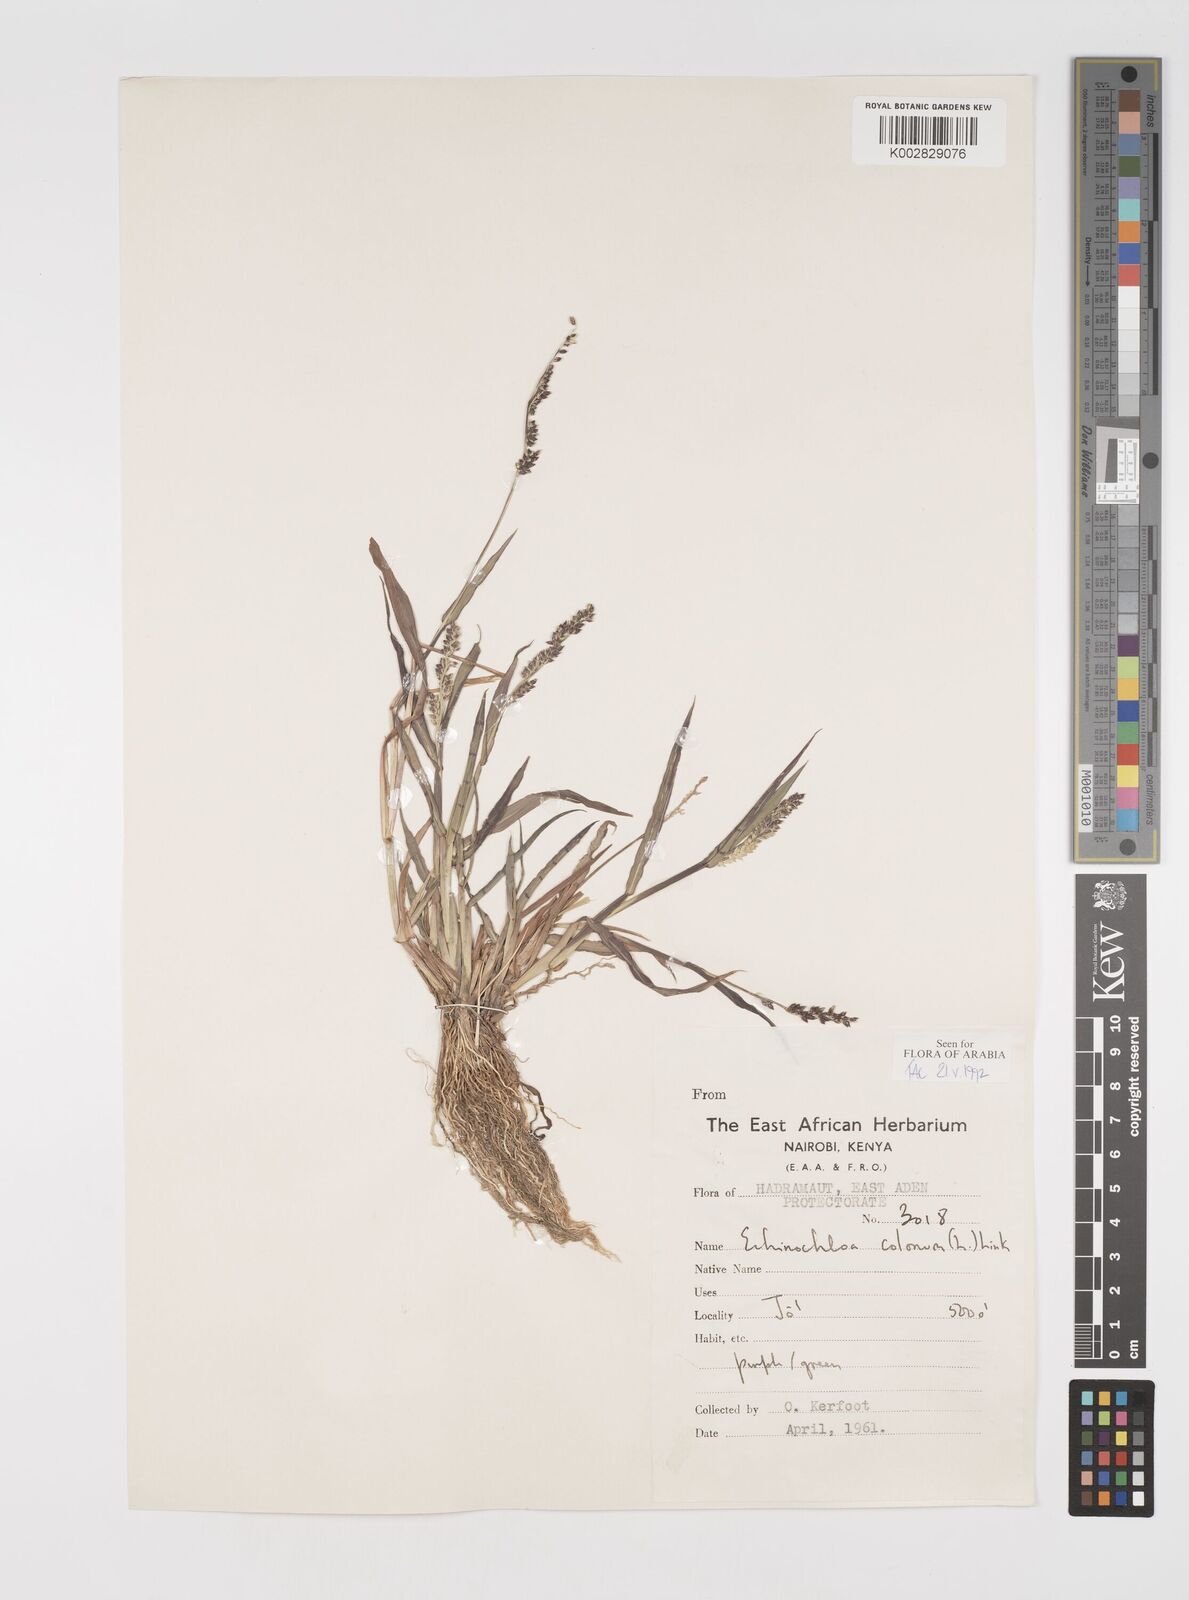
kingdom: Plantae
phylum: Tracheophyta
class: Liliopsida
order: Poales
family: Poaceae
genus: Echinochloa
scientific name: Echinochloa colonum
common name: Jungle rice
